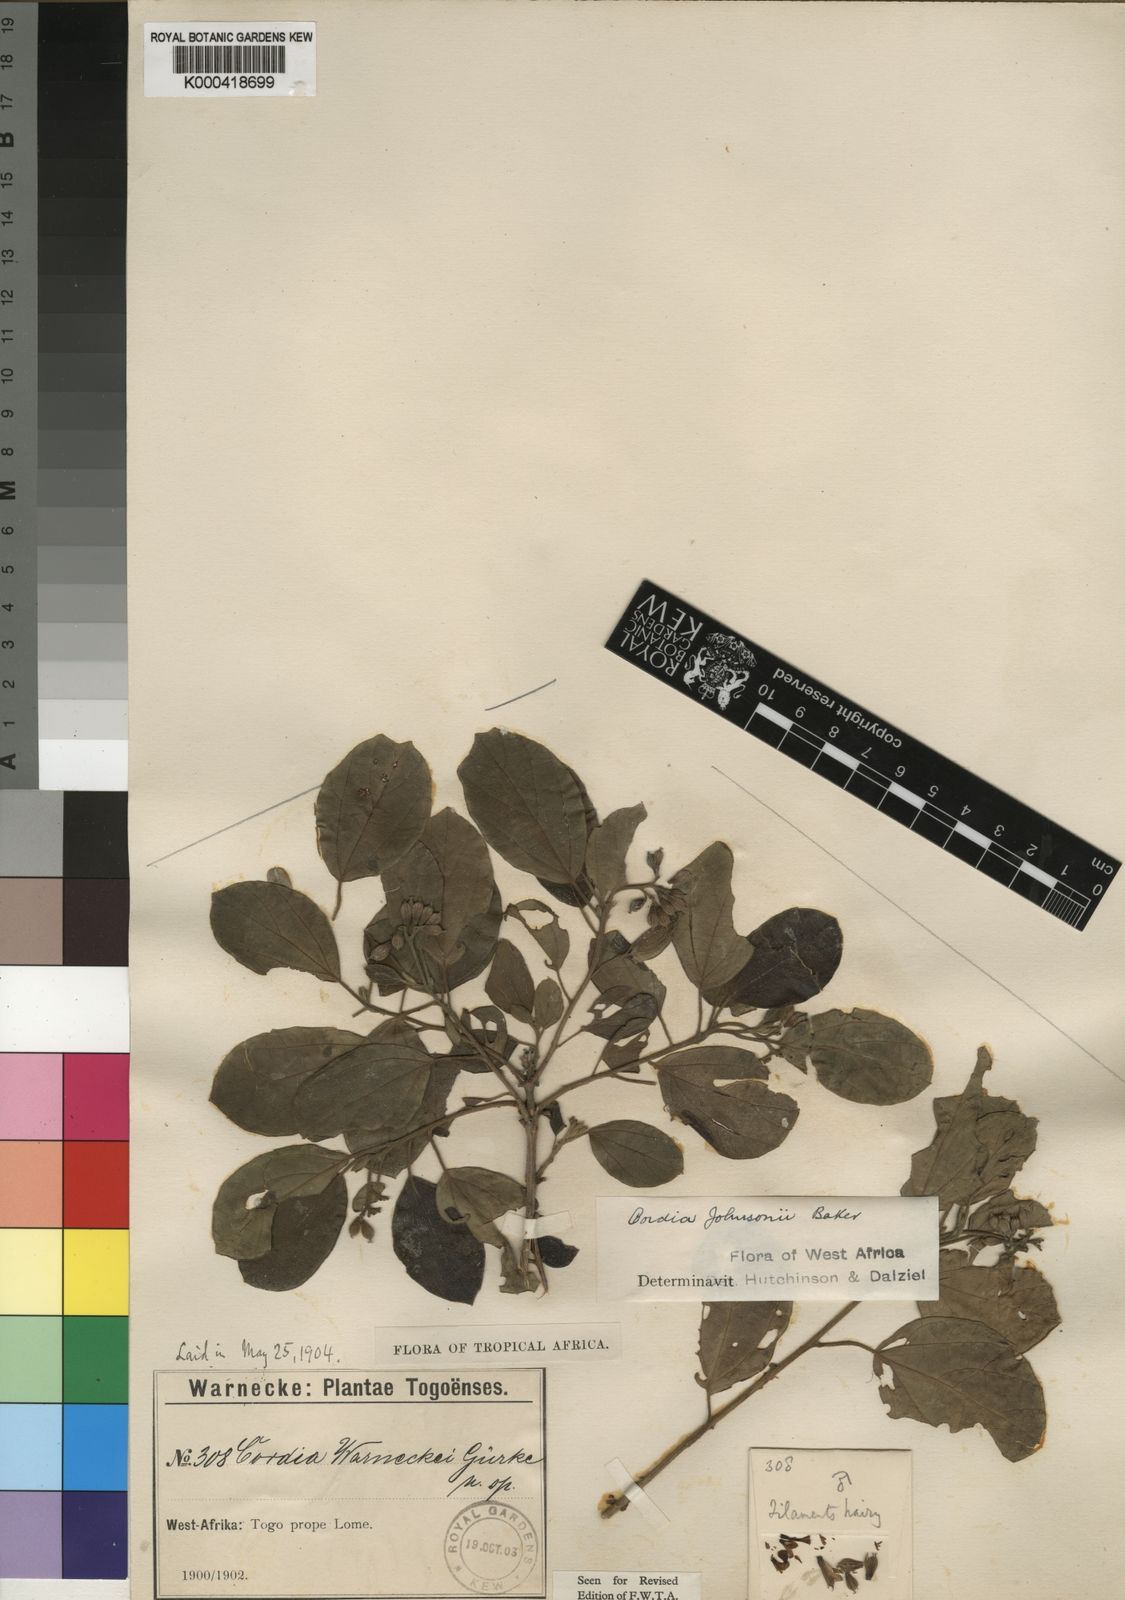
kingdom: Plantae
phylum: Tracheophyta
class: Magnoliopsida
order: Boraginales
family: Cordiaceae
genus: Cordia
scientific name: Cordia guineensis
